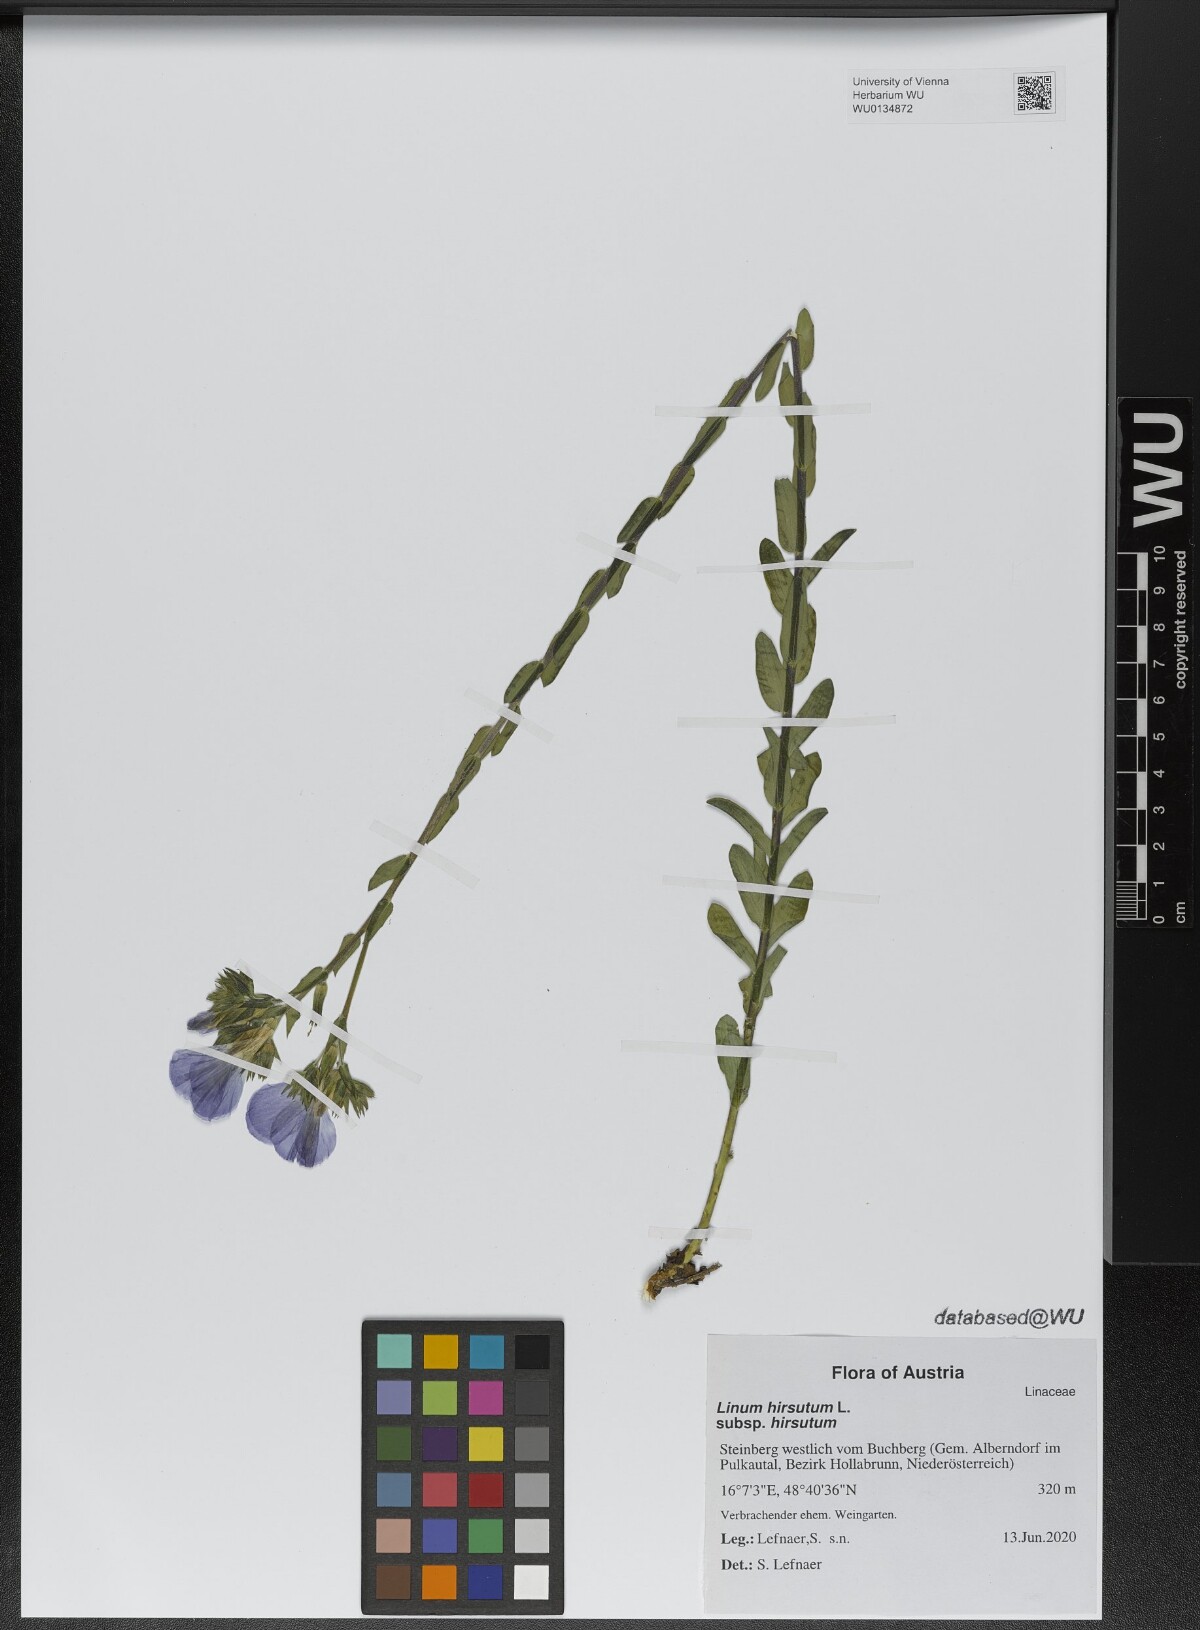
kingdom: Plantae
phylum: Tracheophyta
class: Magnoliopsida
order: Malpighiales
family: Linaceae
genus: Linum
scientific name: Linum hirsutum
